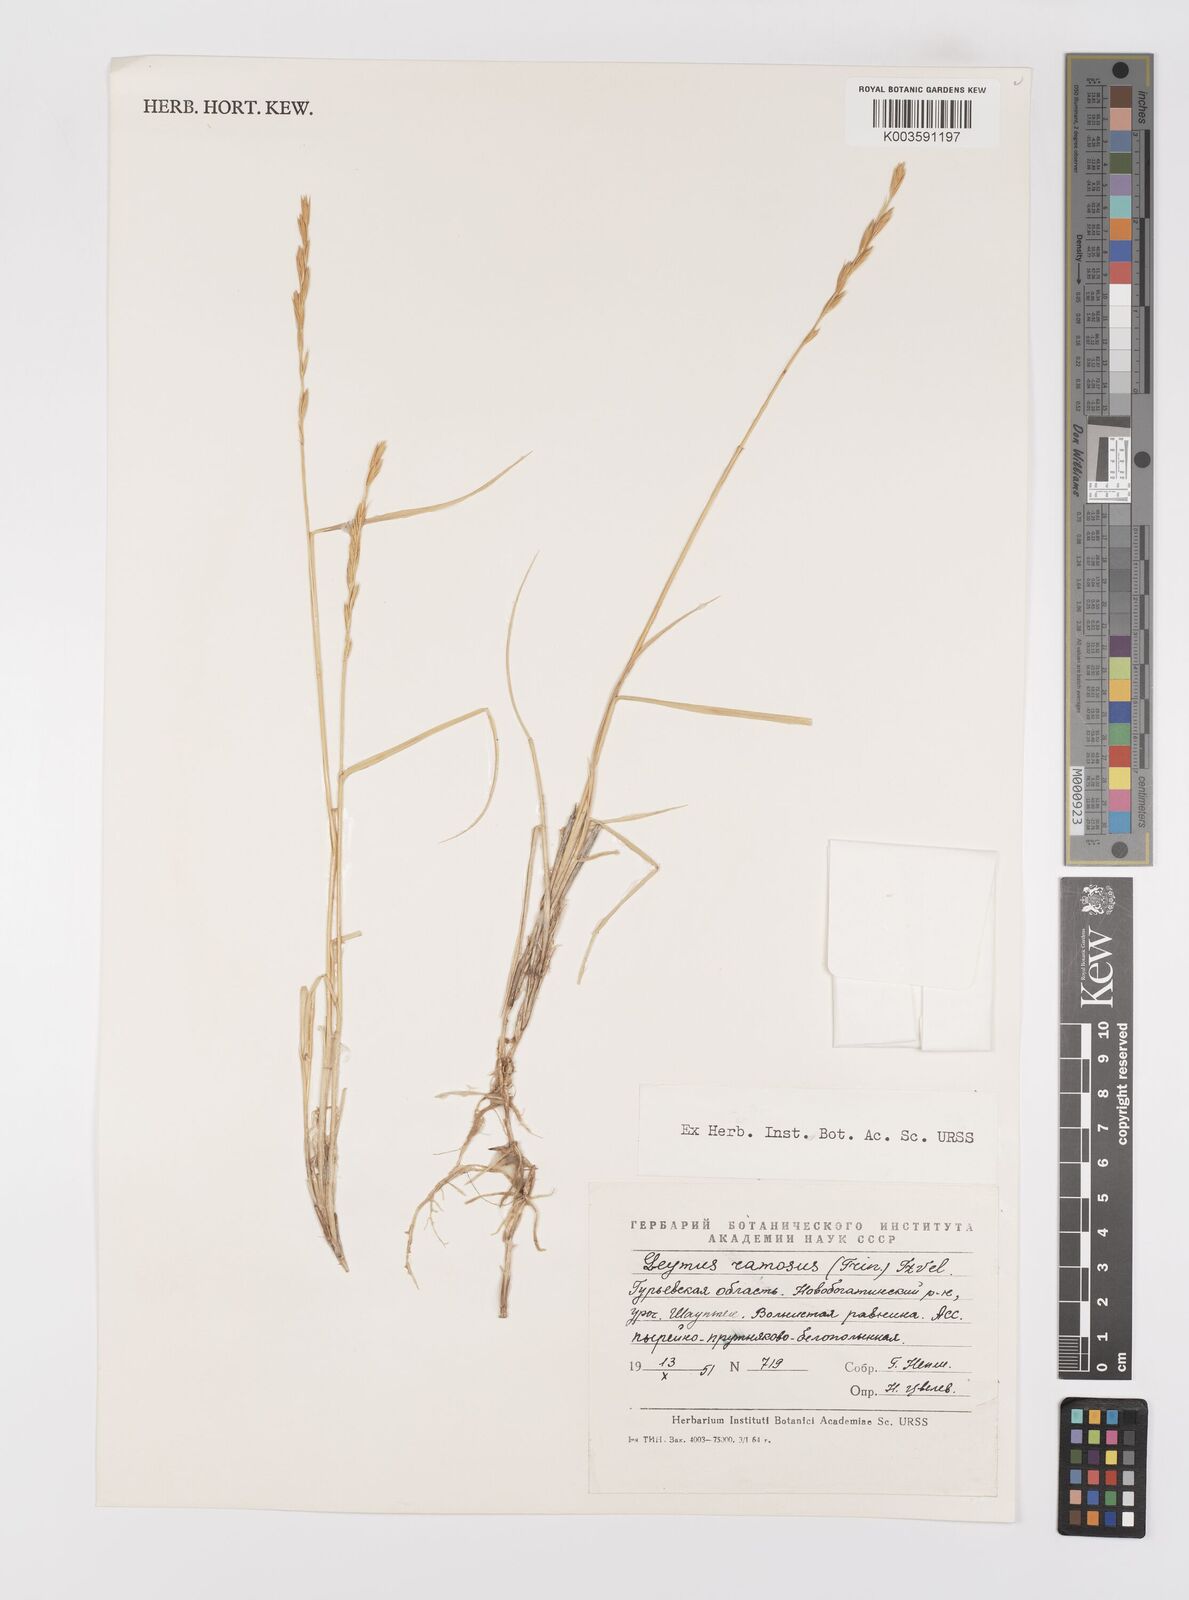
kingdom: Plantae
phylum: Tracheophyta
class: Liliopsida
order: Poales
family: Poaceae
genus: Leymus
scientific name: Leymus ramosus
